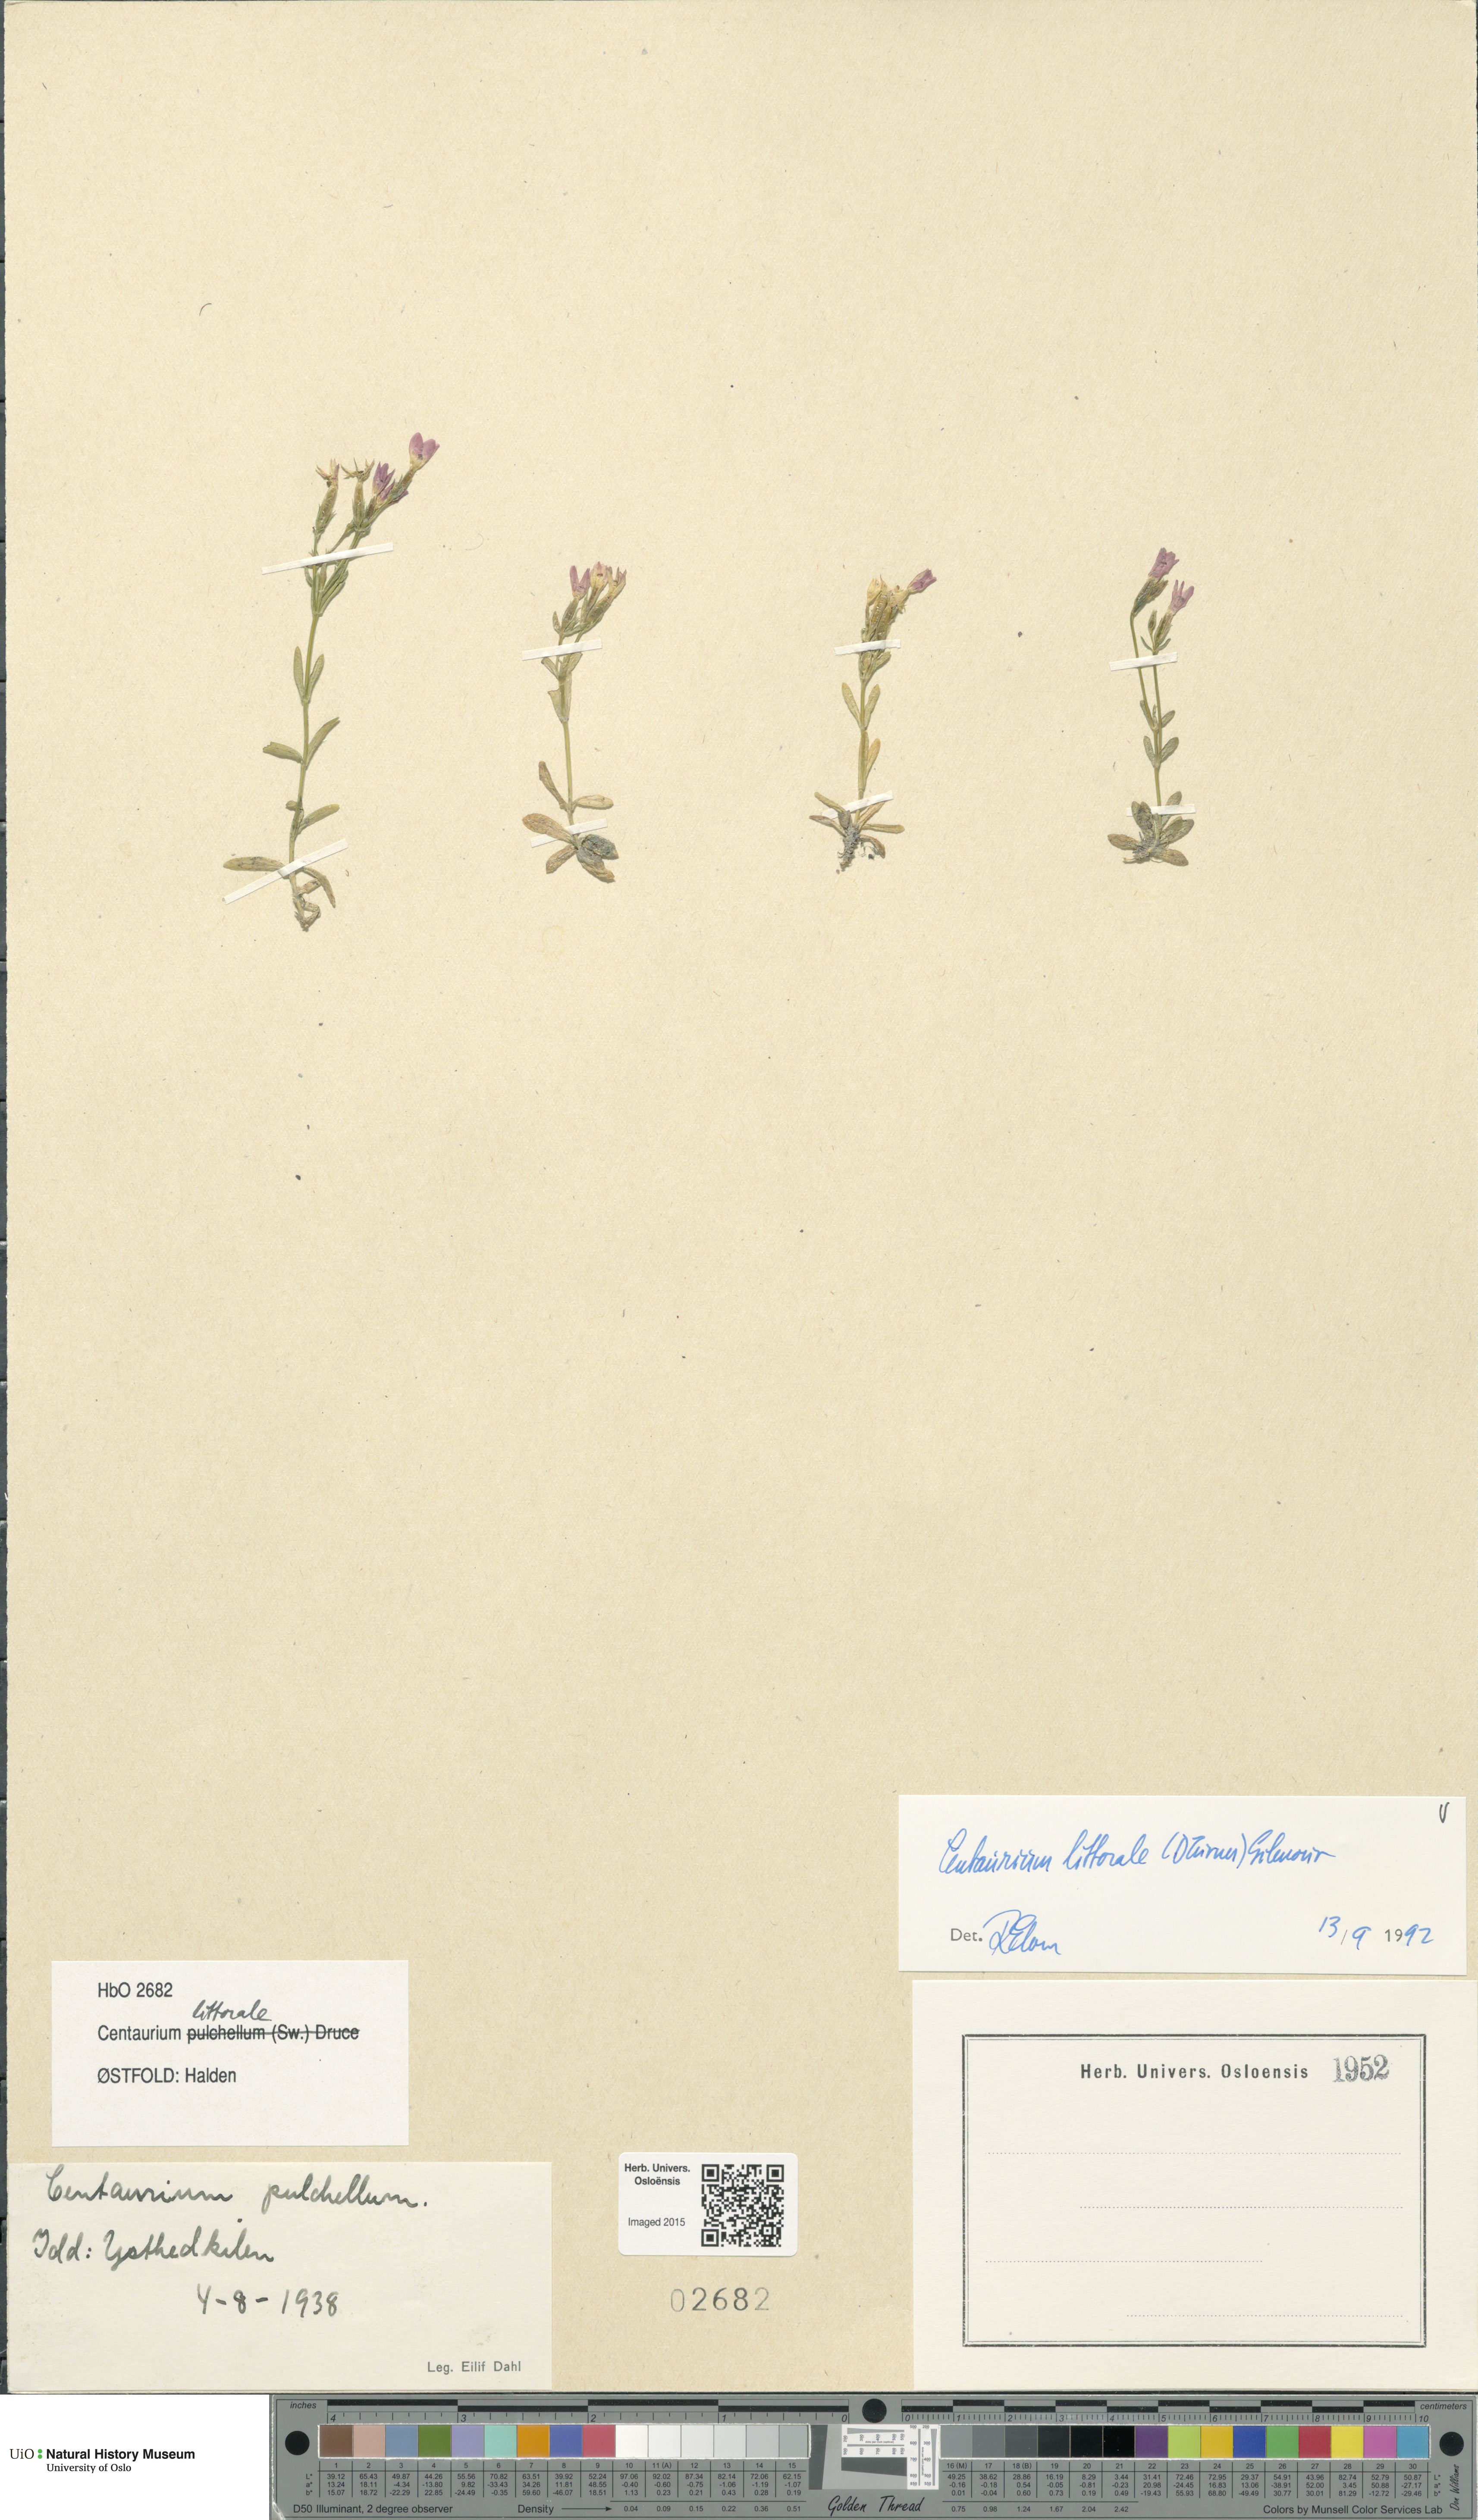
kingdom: Plantae
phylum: Tracheophyta
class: Magnoliopsida
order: Gentianales
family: Gentianaceae
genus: Centaurium
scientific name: Centaurium littorale
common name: Seaside centaury
